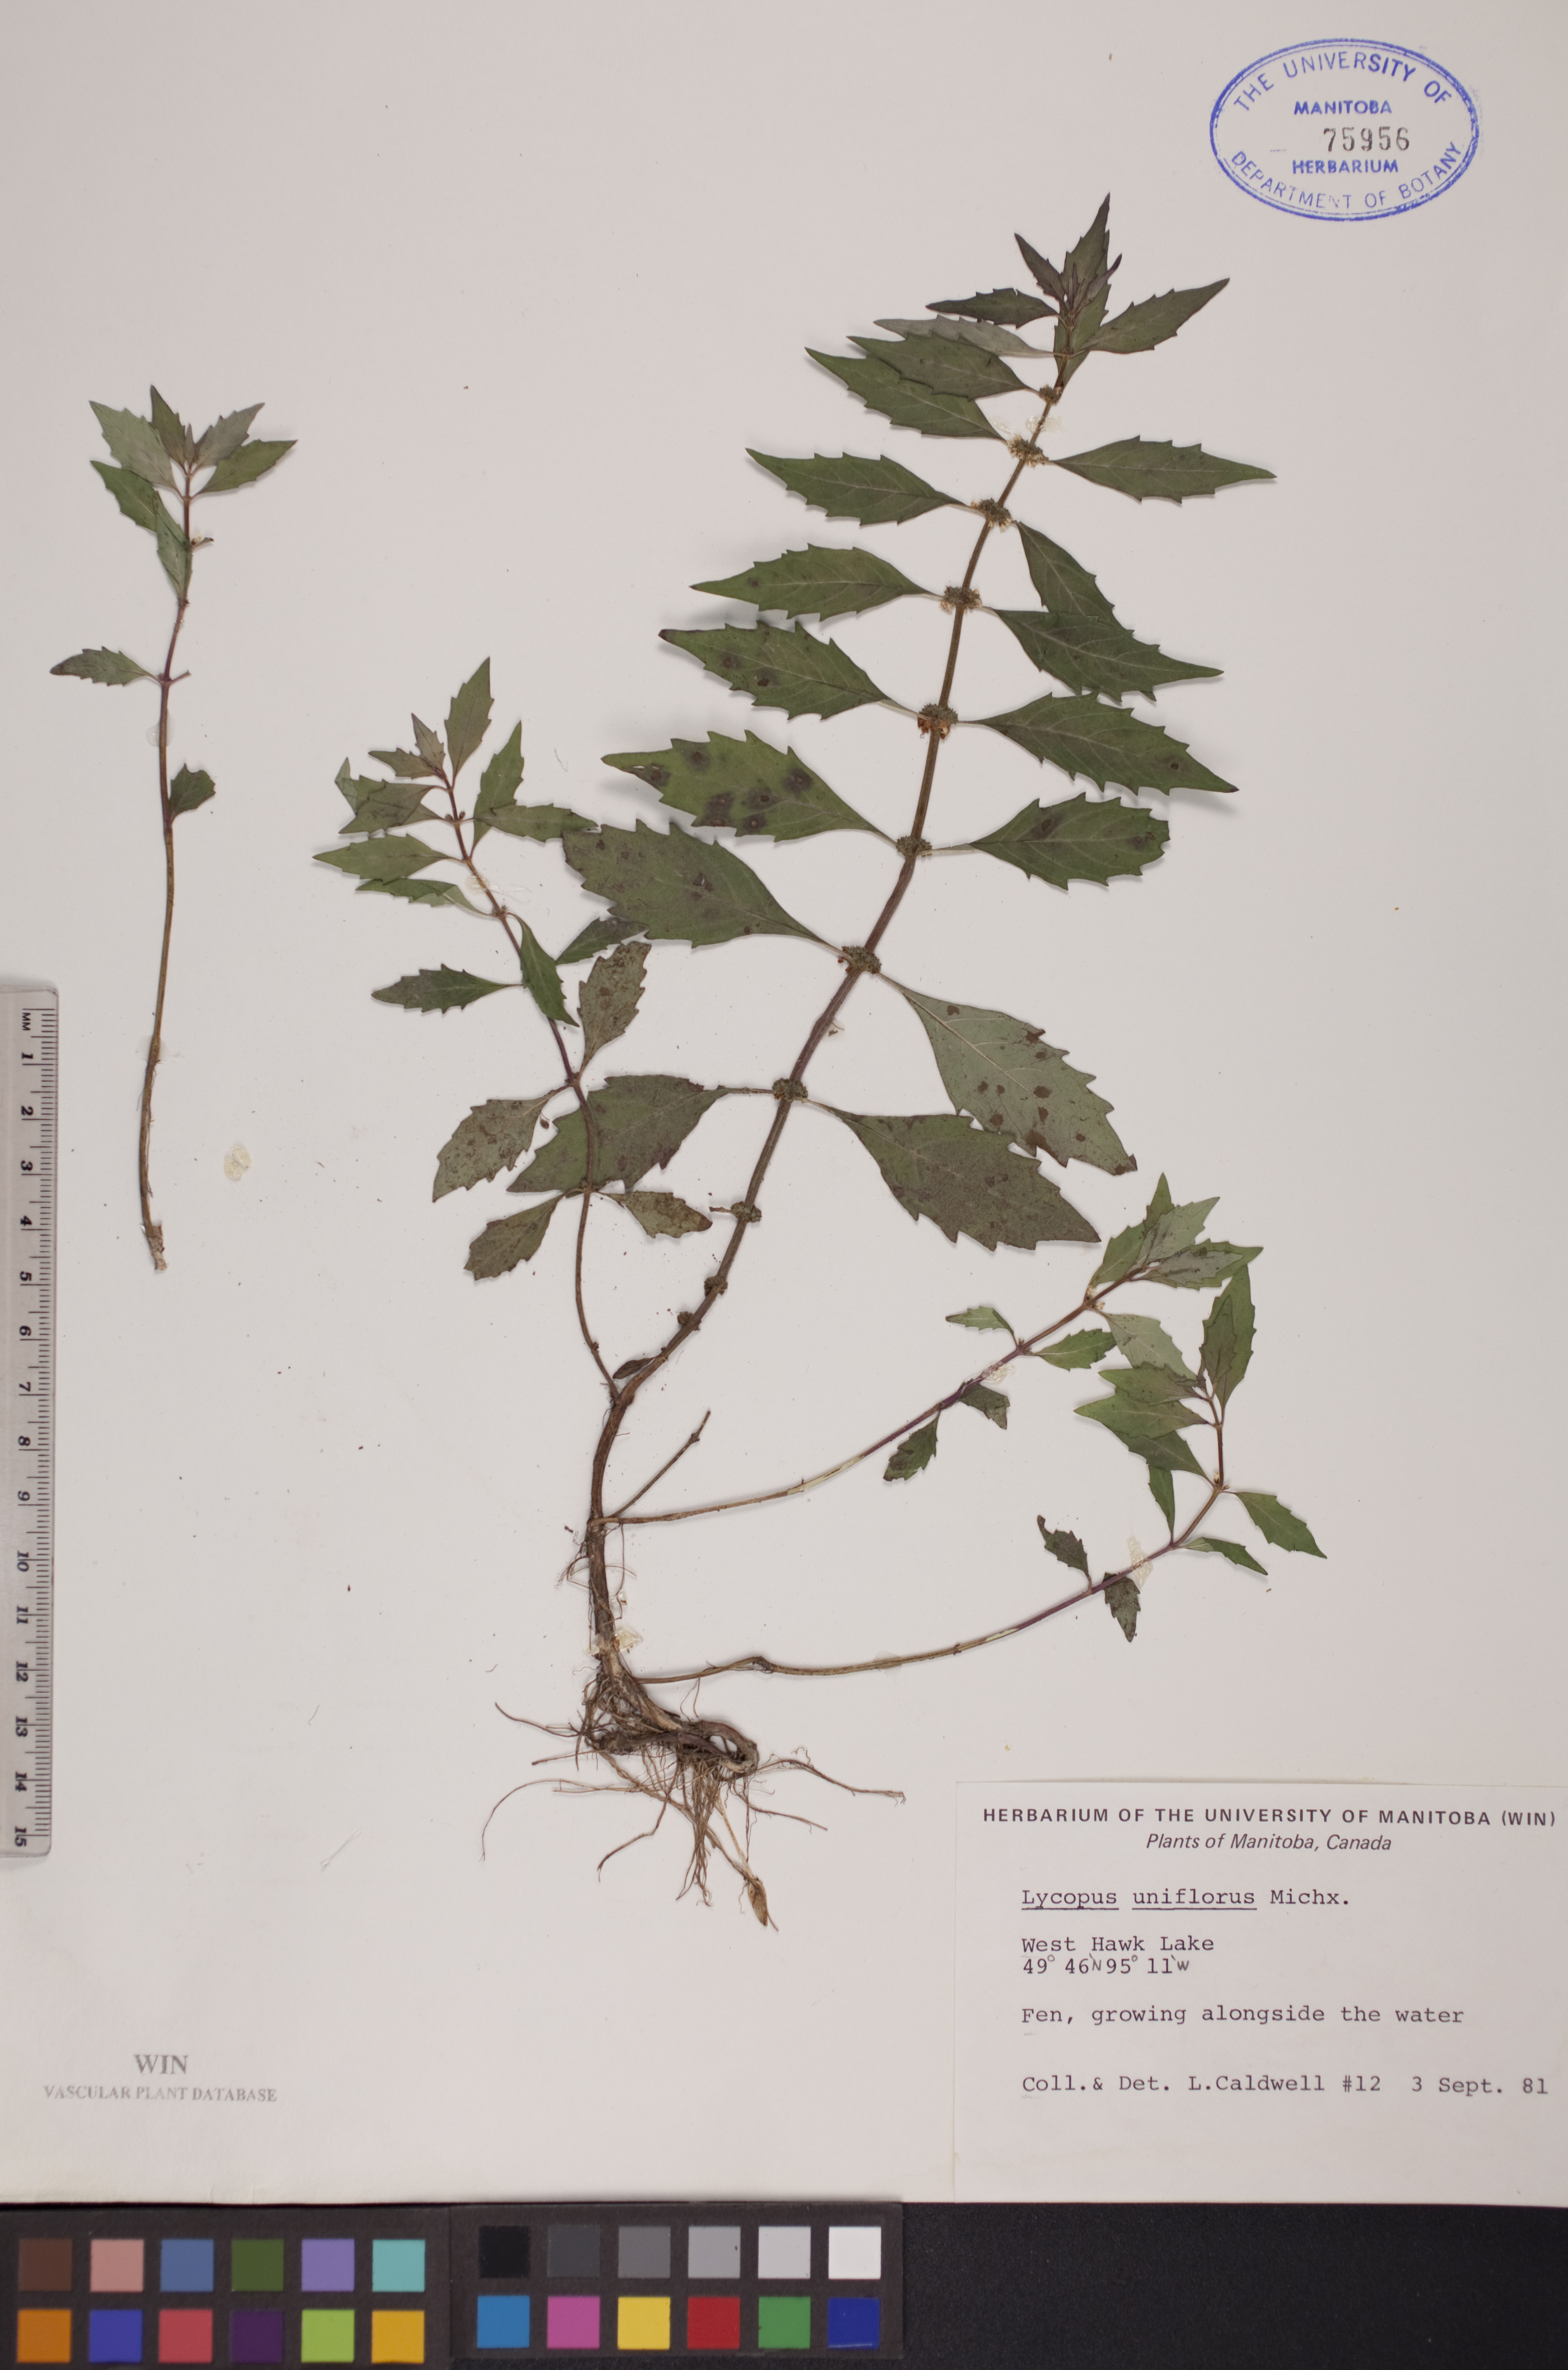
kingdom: Plantae
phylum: Tracheophyta
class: Magnoliopsida
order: Lamiales
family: Lamiaceae
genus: Lycopus
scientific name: Lycopus uniflorus
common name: Northern bugleweed
